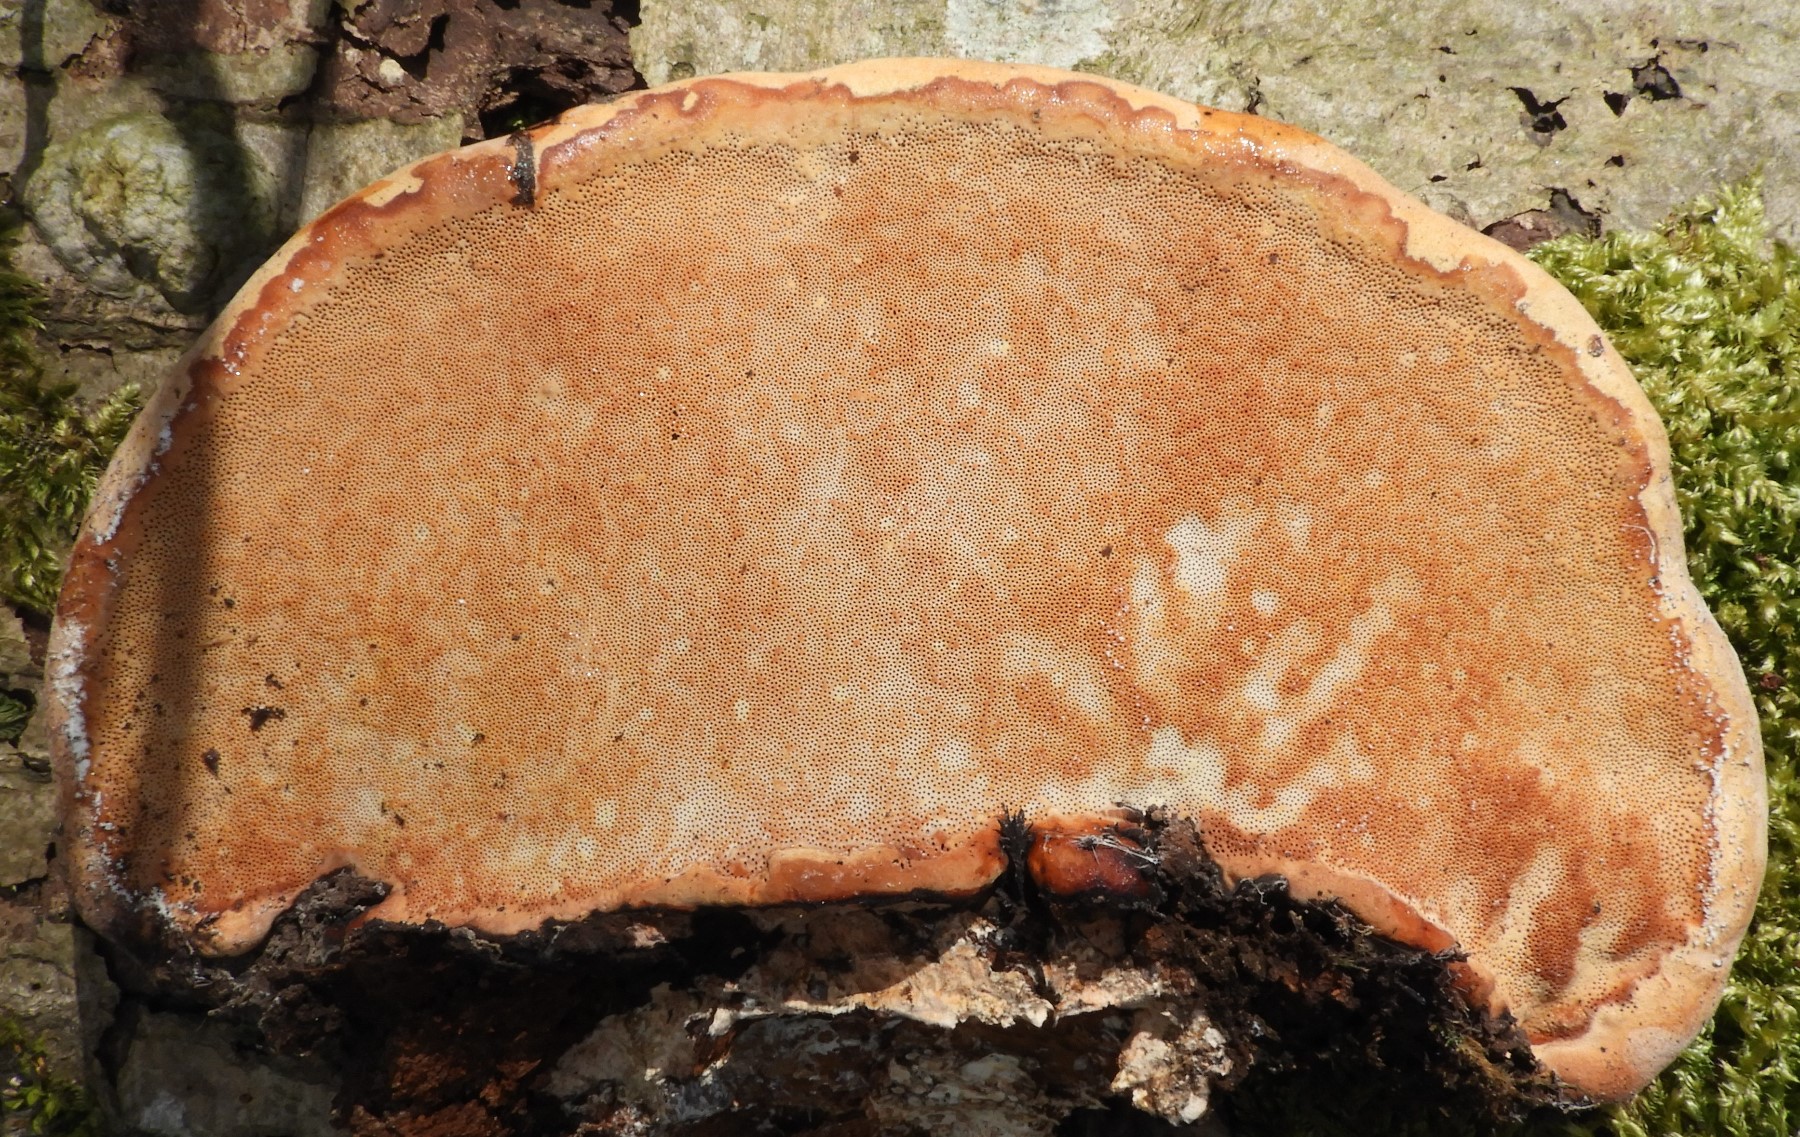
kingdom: Fungi
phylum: Basidiomycota
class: Agaricomycetes
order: Polyporales
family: Polyporaceae
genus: Ganoderma
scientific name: Ganoderma pfeifferi
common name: kobberrød lakporesvamp
